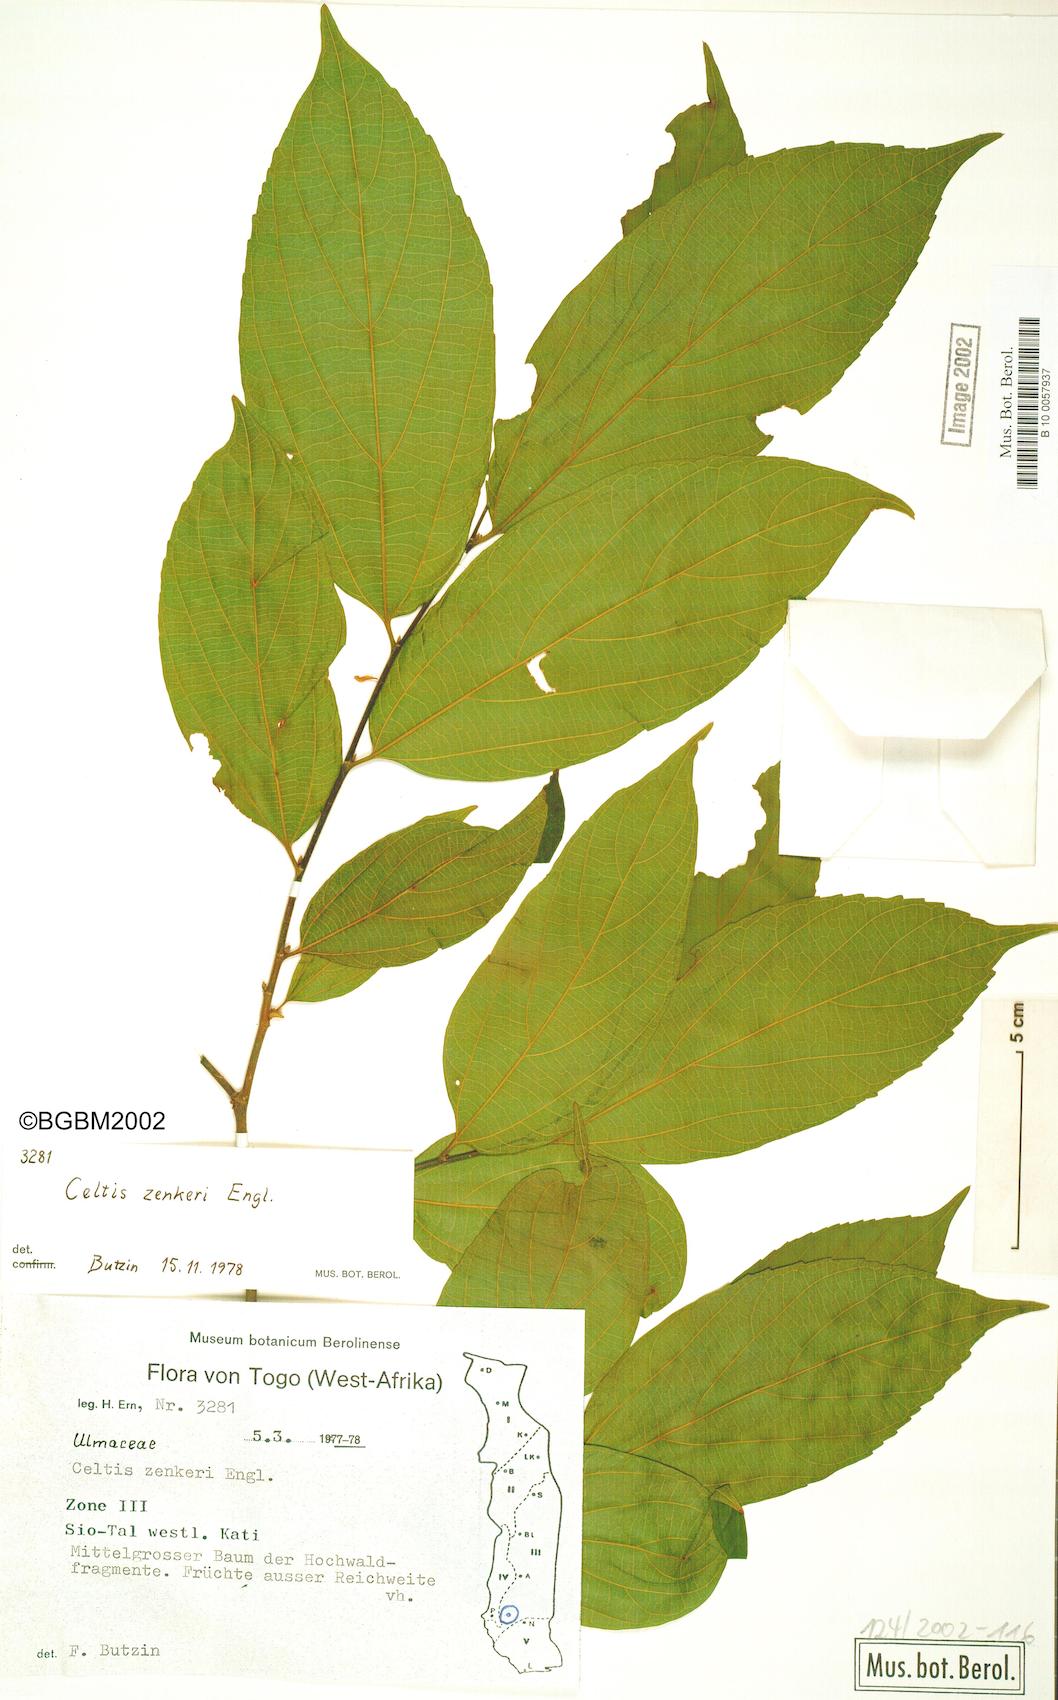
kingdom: Plantae
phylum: Tracheophyta
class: Magnoliopsida
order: Rosales
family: Cannabaceae
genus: Celtis
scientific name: Celtis zenkeri
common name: African celtis
